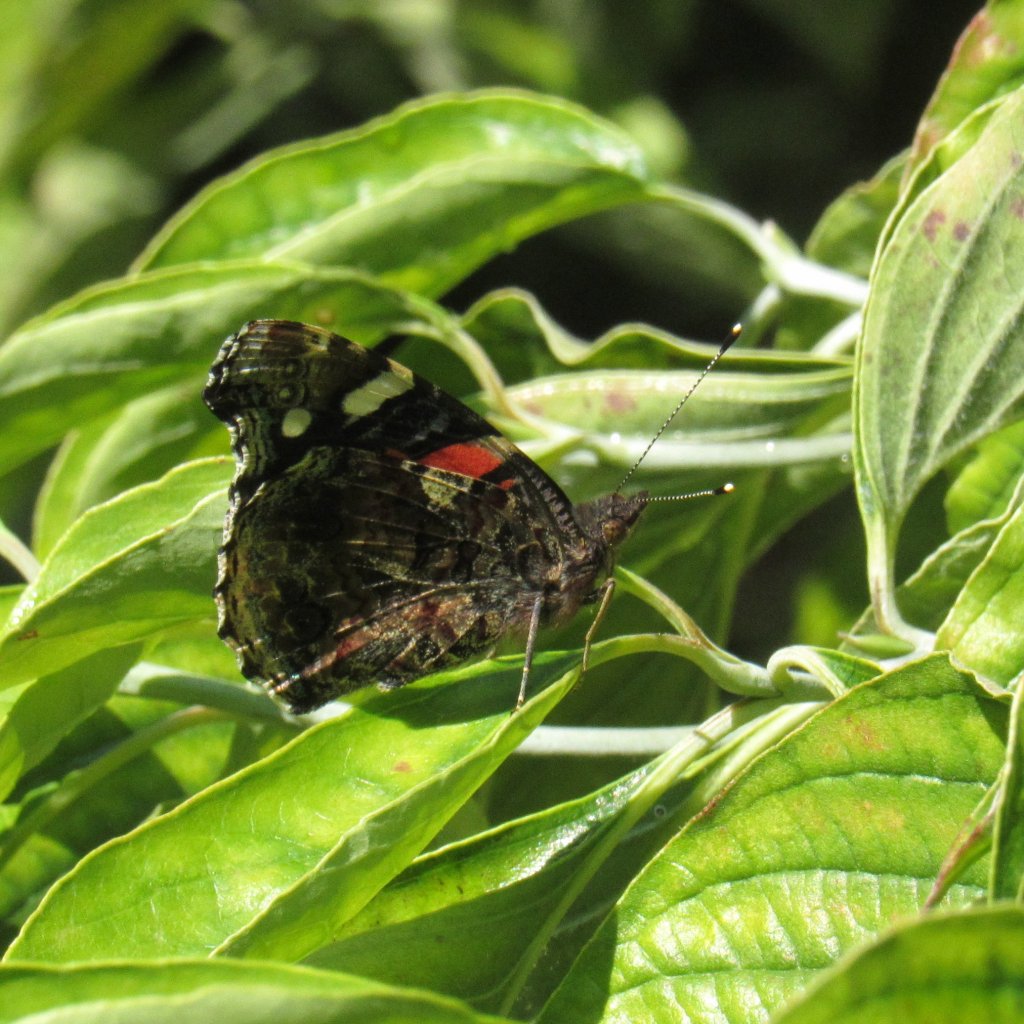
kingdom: Animalia
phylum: Arthropoda
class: Insecta
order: Lepidoptera
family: Nymphalidae
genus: Vanessa
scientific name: Vanessa atalanta
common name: Red Admiral
